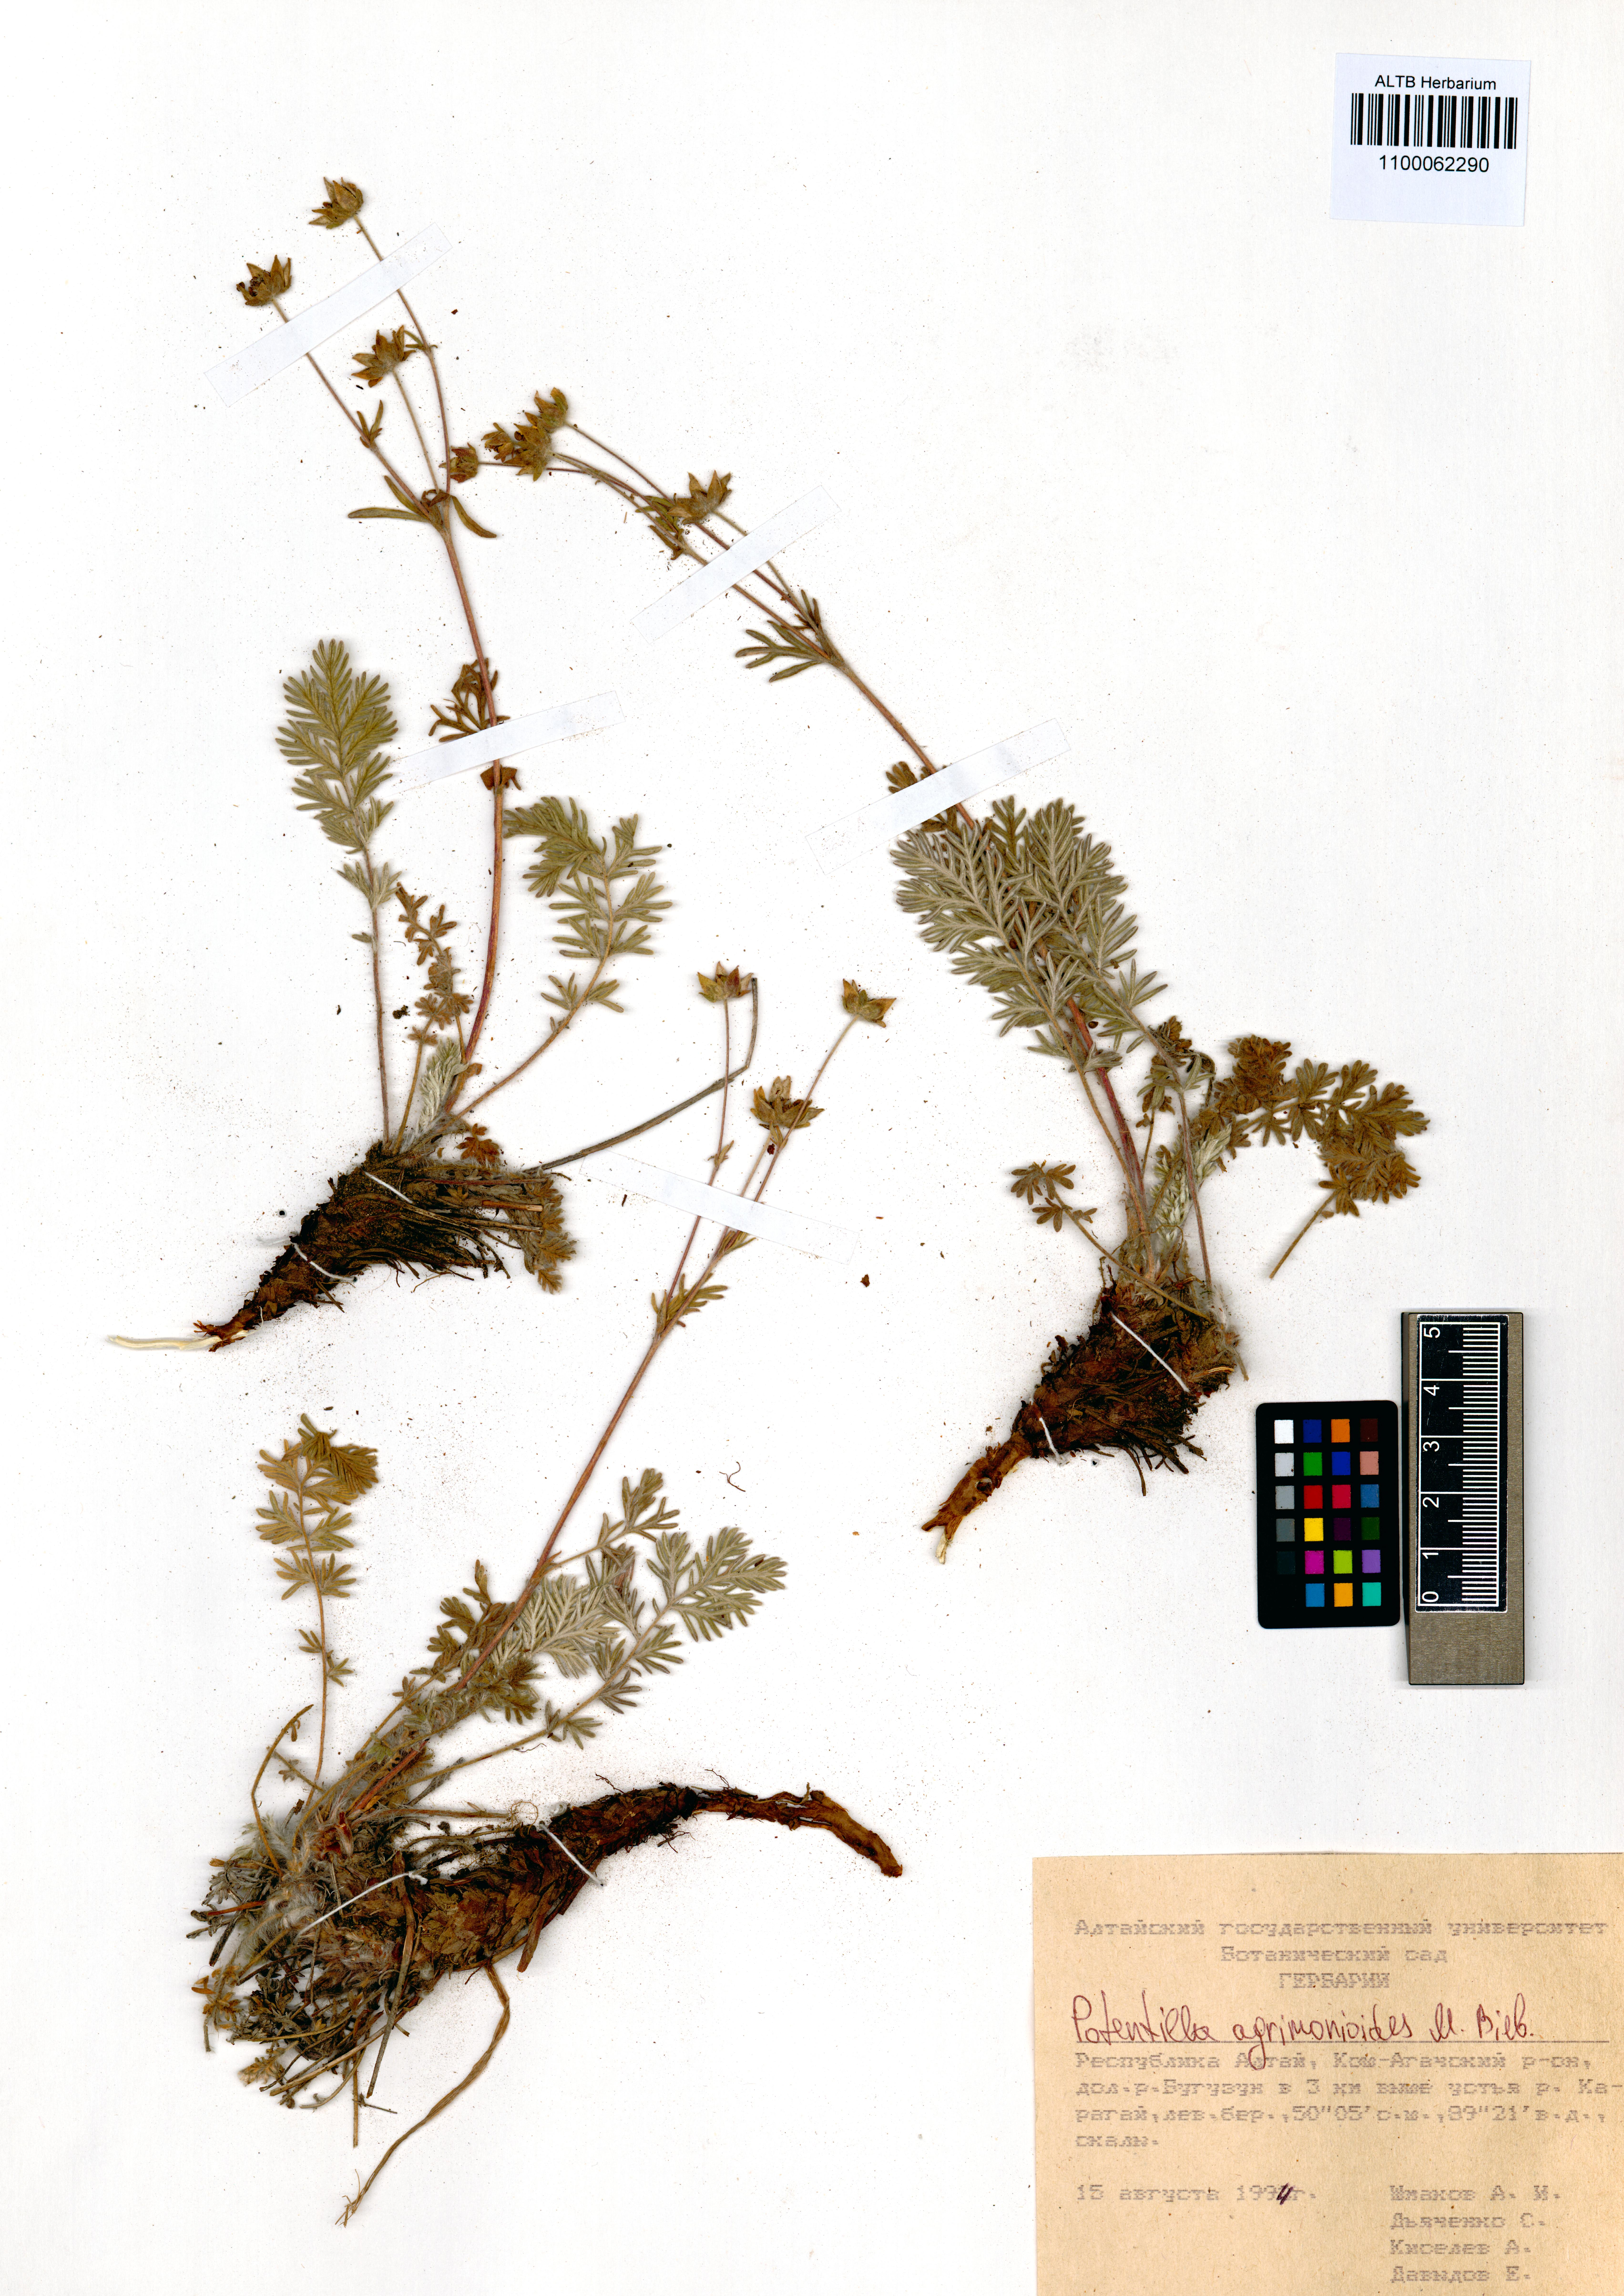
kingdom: Plantae
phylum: Tracheophyta
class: Magnoliopsida
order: Rosales
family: Rosaceae
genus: Potentilla
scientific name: Potentilla agrimonioides
